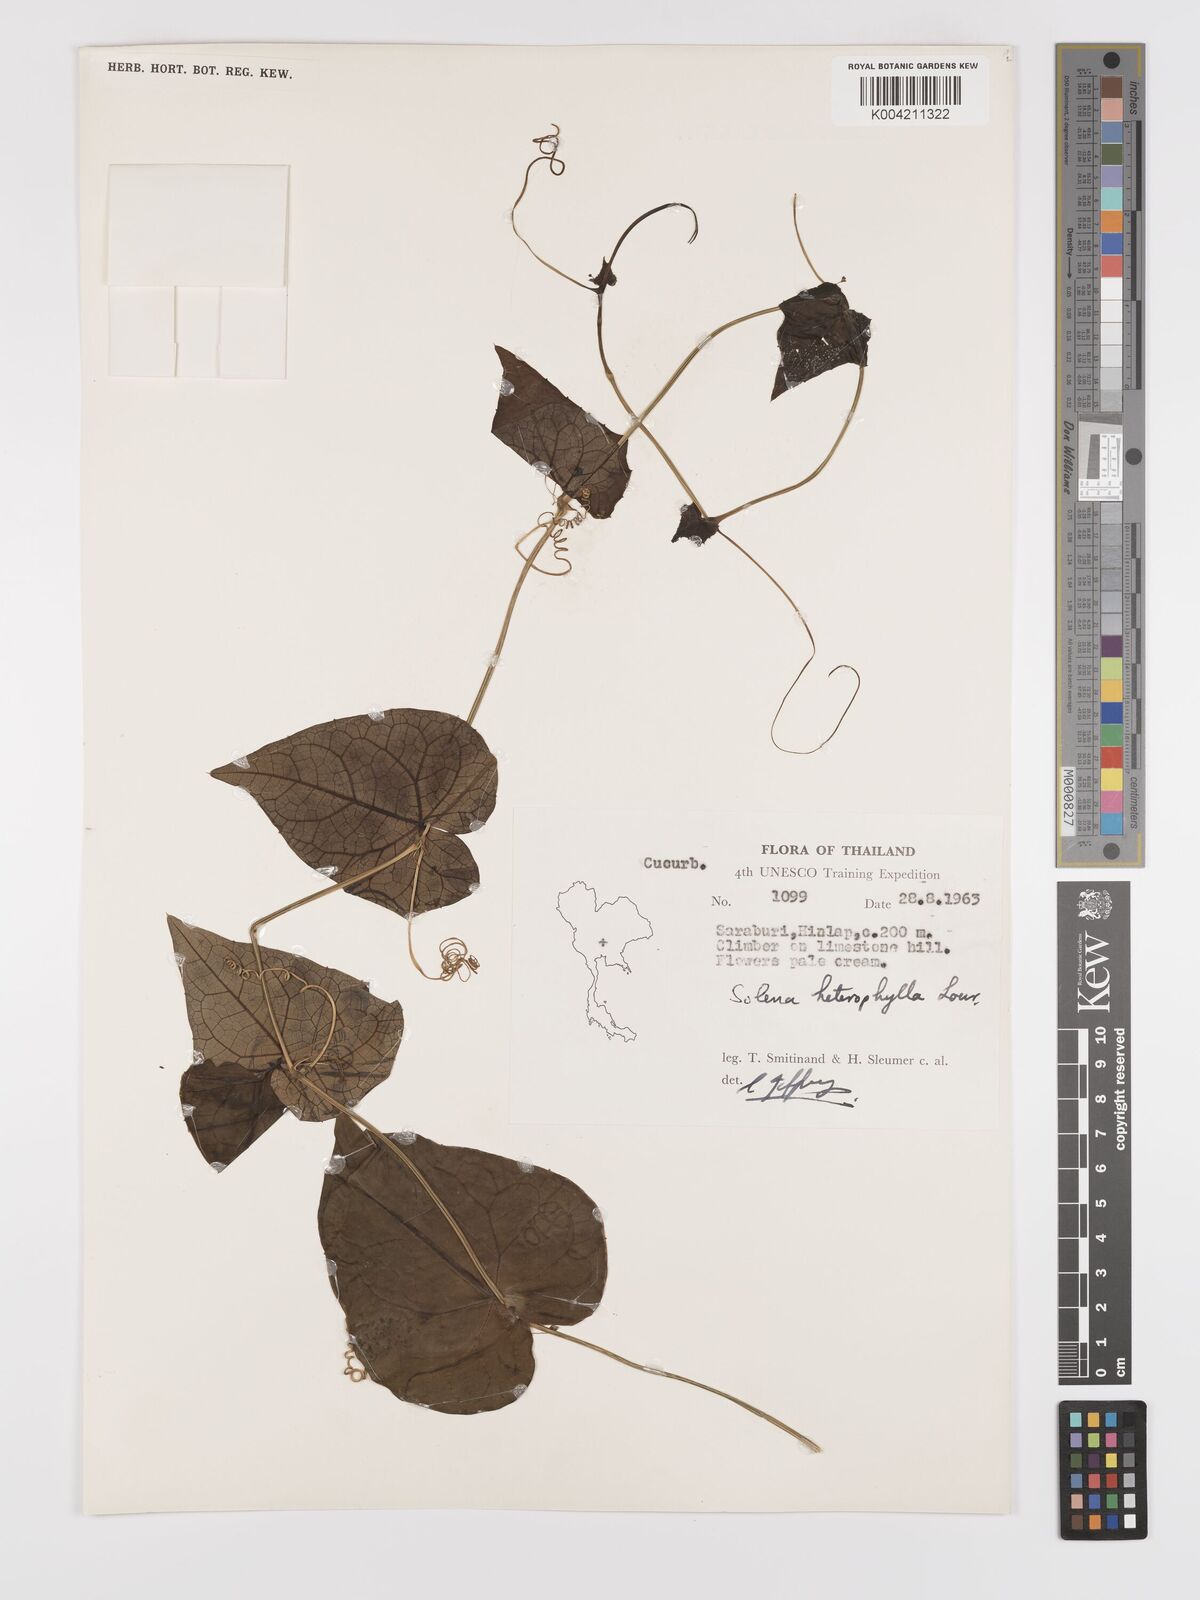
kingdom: Plantae
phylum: Tracheophyta
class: Magnoliopsida
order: Cucurbitales
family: Cucurbitaceae
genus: Solena
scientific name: Solena amplexicaulis
